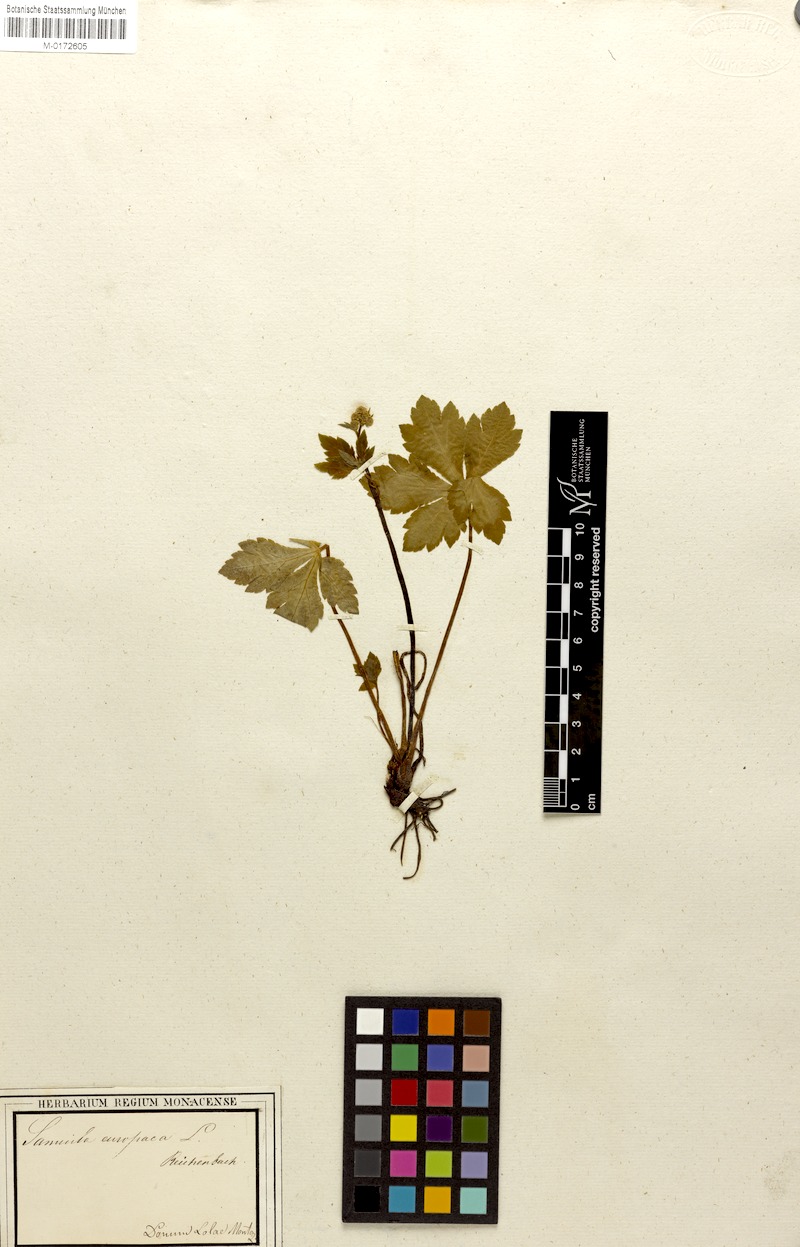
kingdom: Plantae
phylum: Tracheophyta
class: Magnoliopsida
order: Apiales
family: Apiaceae
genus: Sanicula
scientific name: Sanicula europaea
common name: Sanicle
